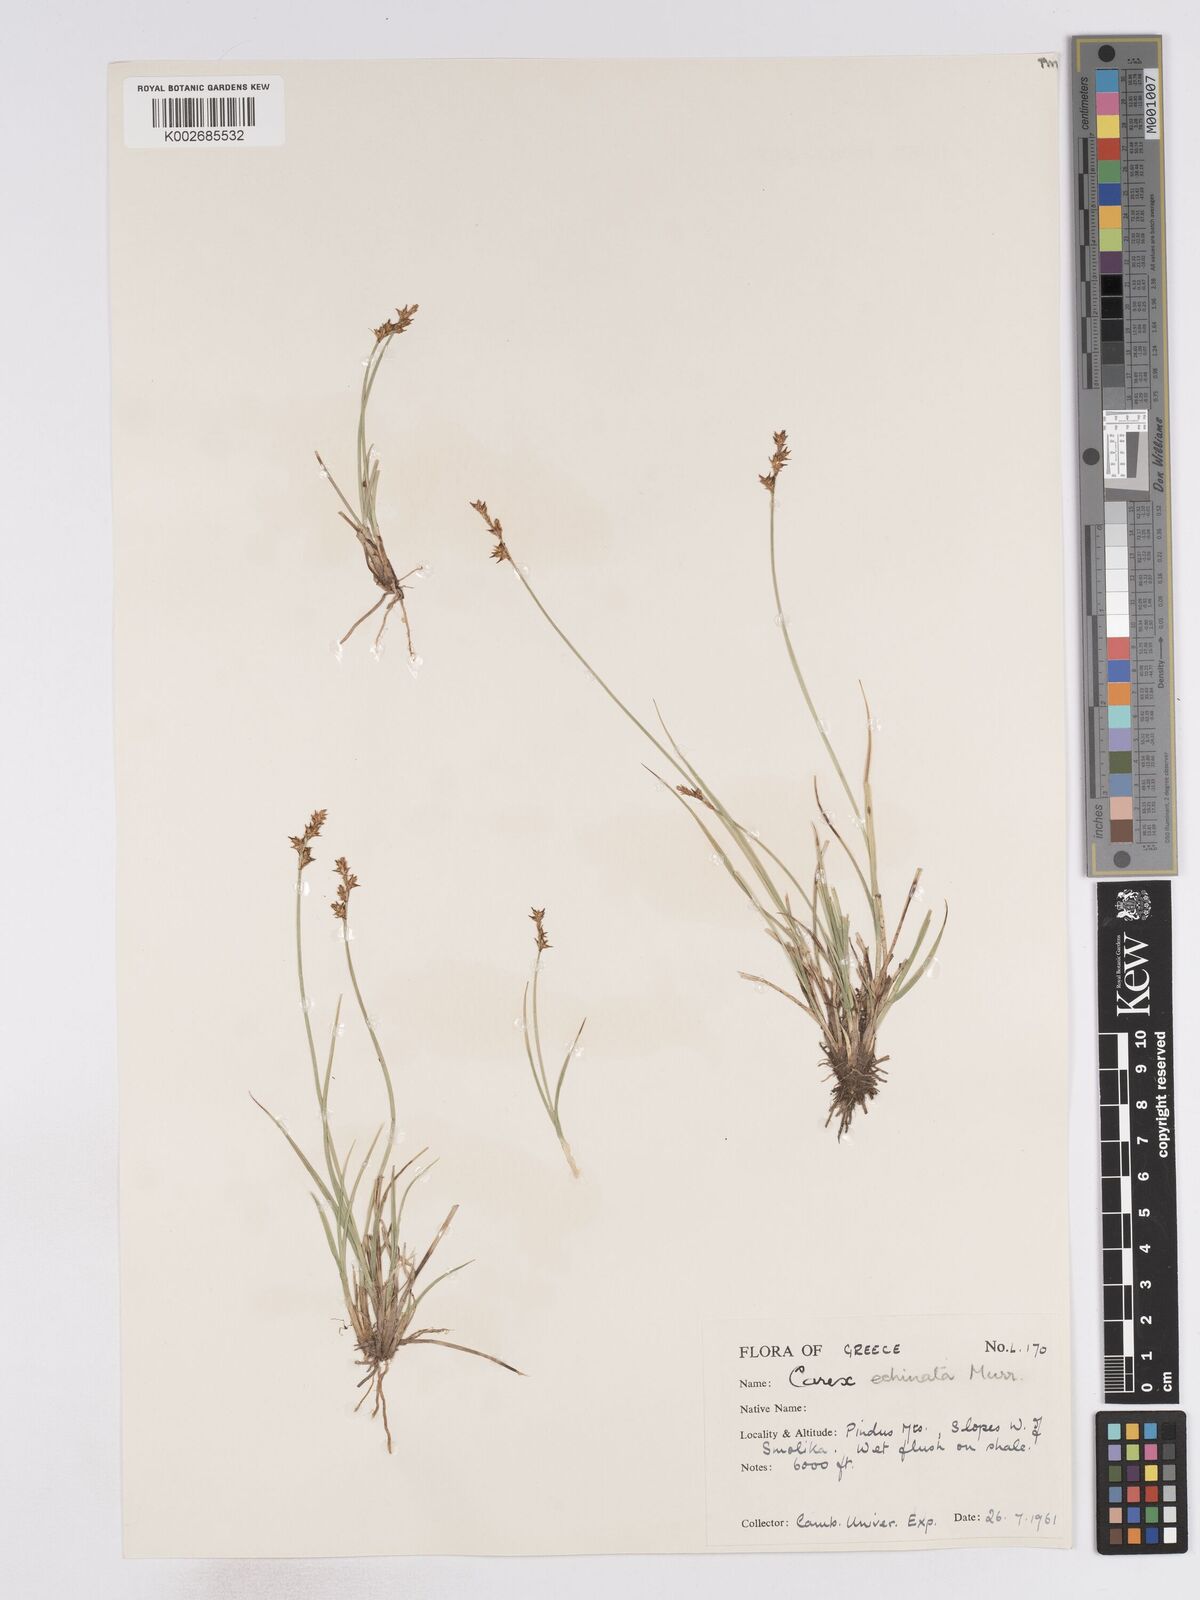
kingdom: Plantae
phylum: Tracheophyta
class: Liliopsida
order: Poales
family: Cyperaceae
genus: Carex
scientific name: Carex echinata
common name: Star sedge
